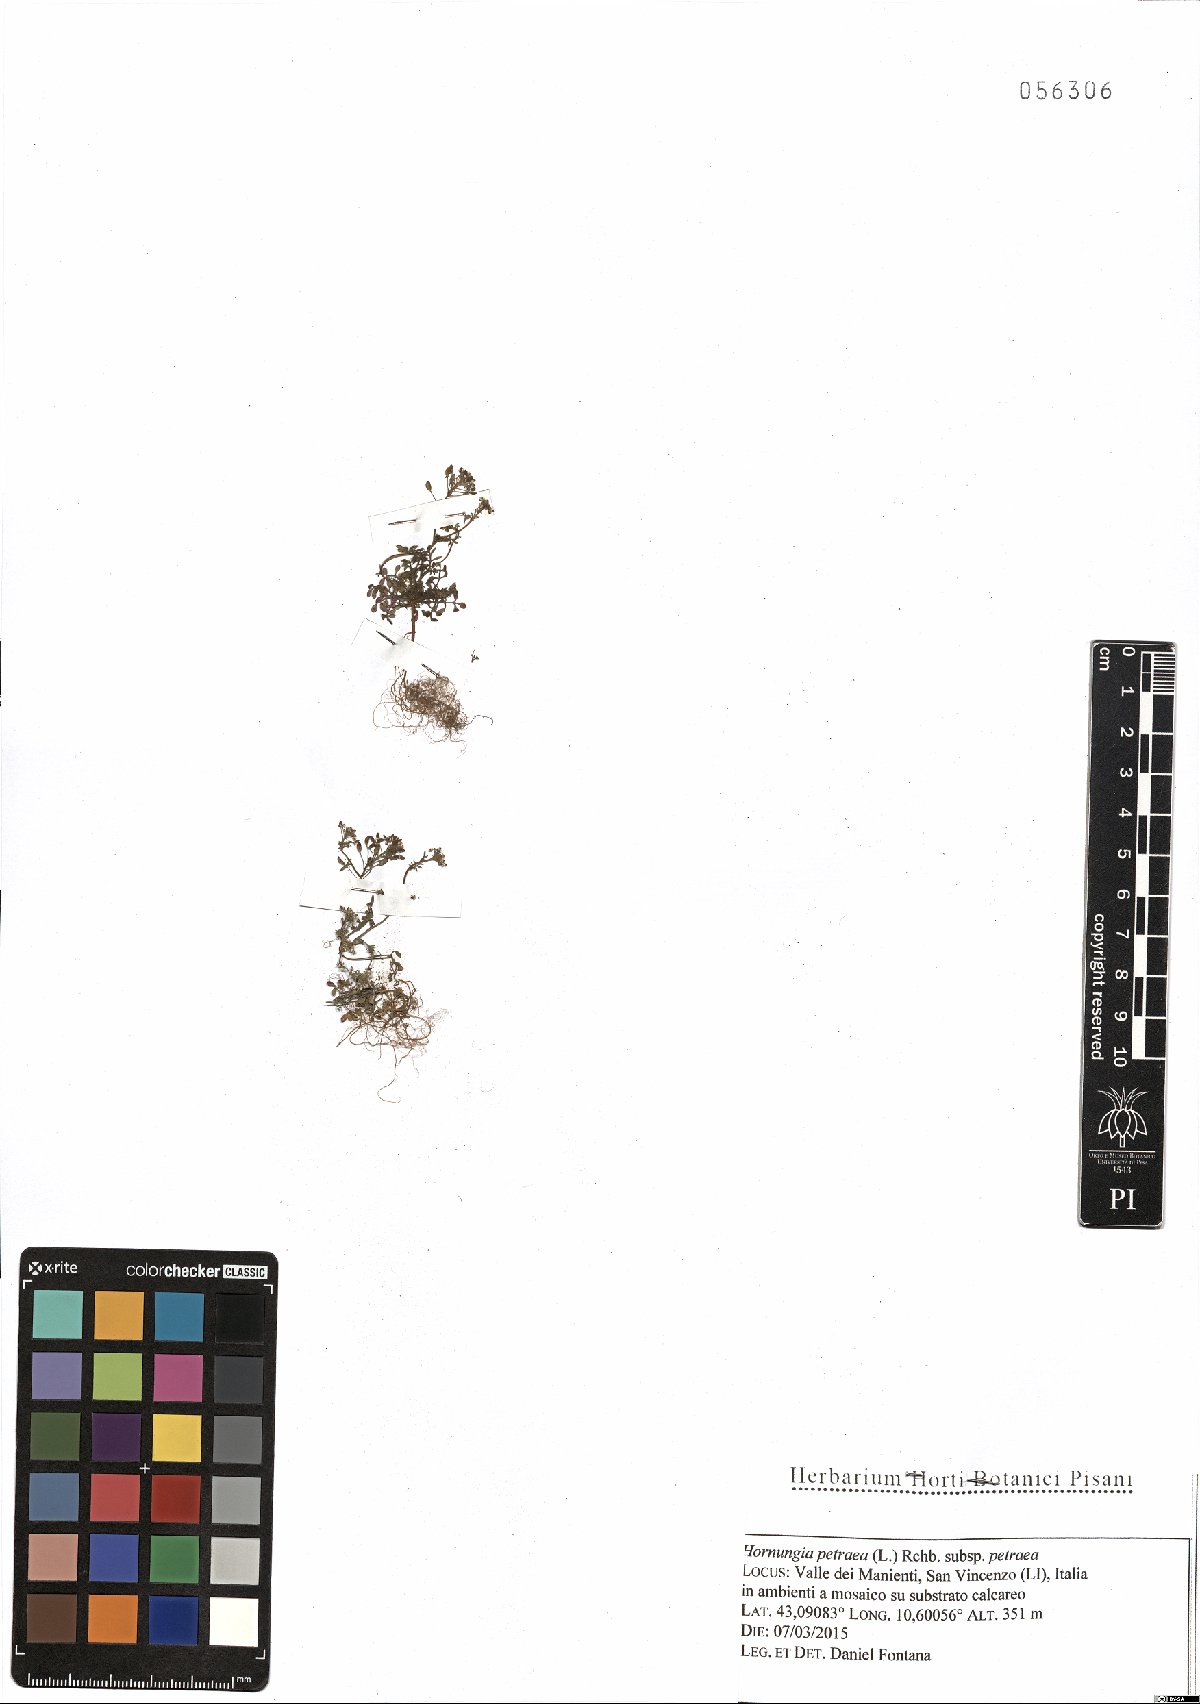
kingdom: Plantae
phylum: Tracheophyta
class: Magnoliopsida
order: Brassicales
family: Brassicaceae
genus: Hornungia
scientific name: Hornungia petraea
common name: Hutchinsia
